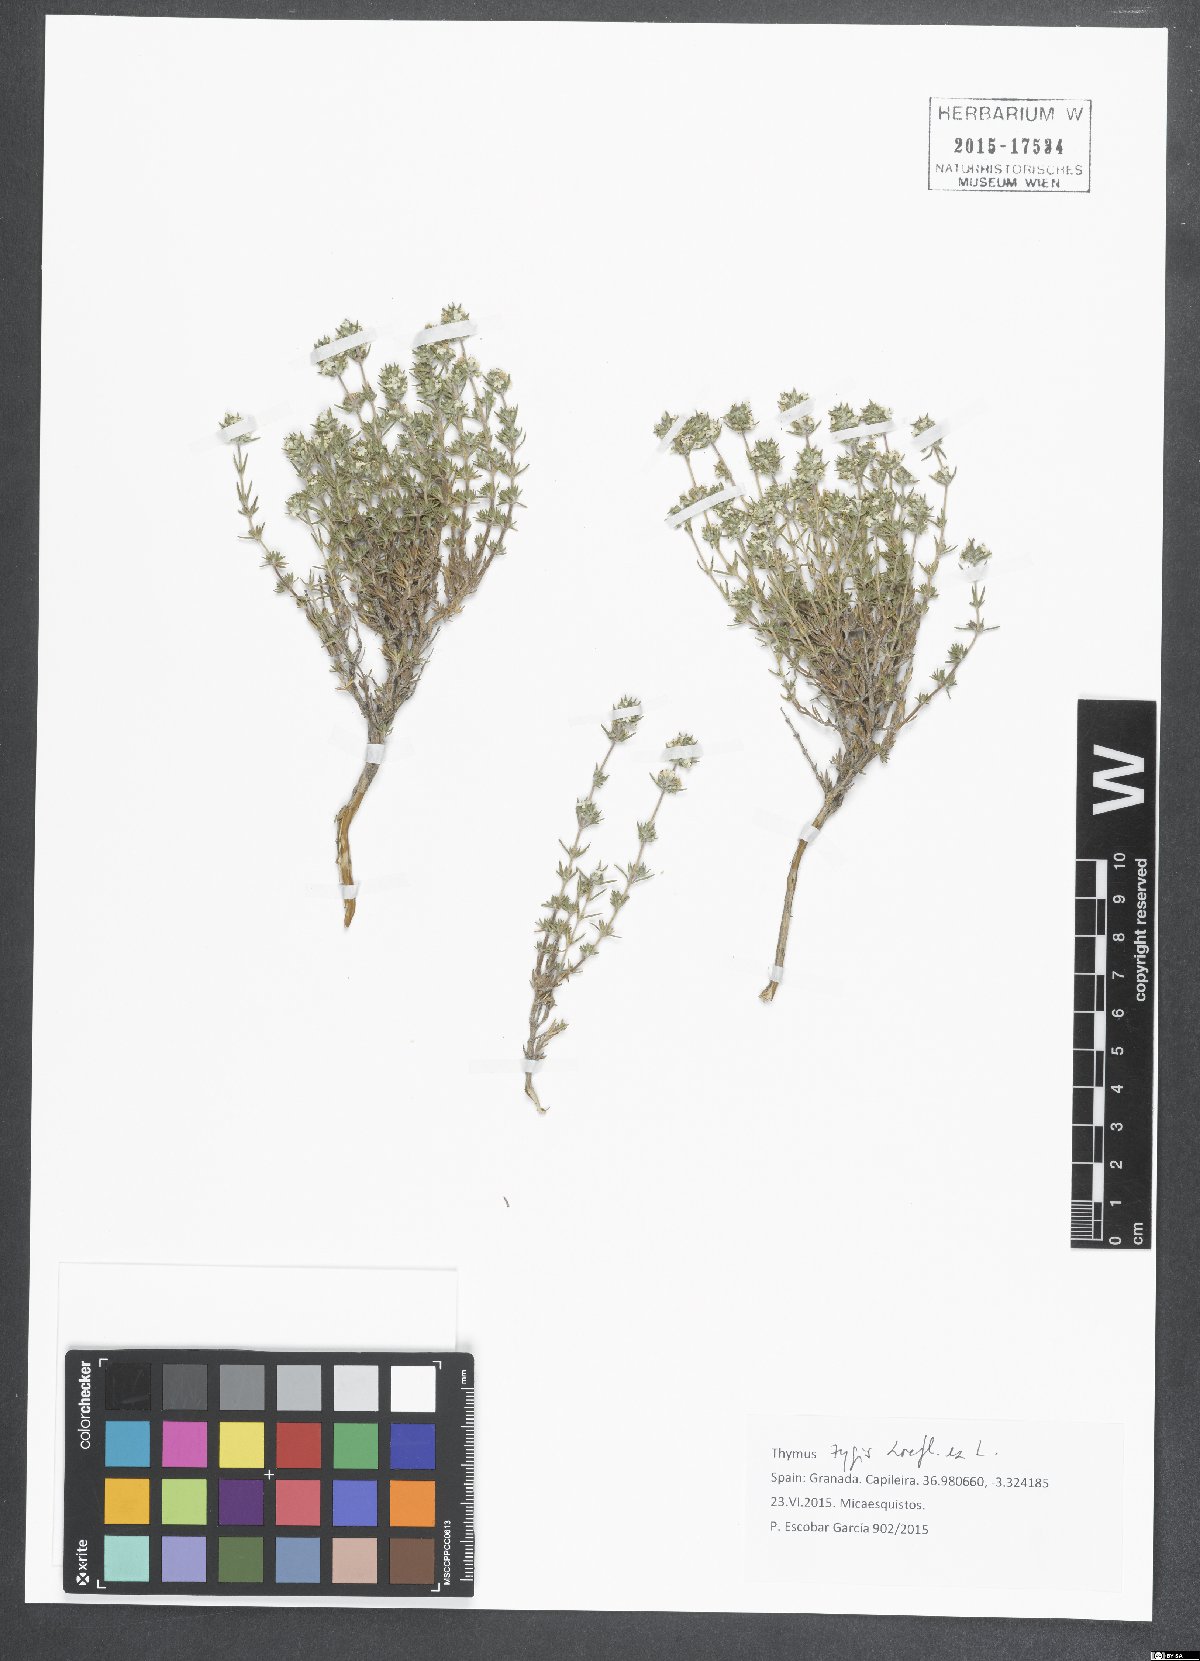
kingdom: Plantae
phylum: Tracheophyta
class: Magnoliopsida
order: Lamiales
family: Lamiaceae
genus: Thymus
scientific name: Thymus zygis
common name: White thyme
